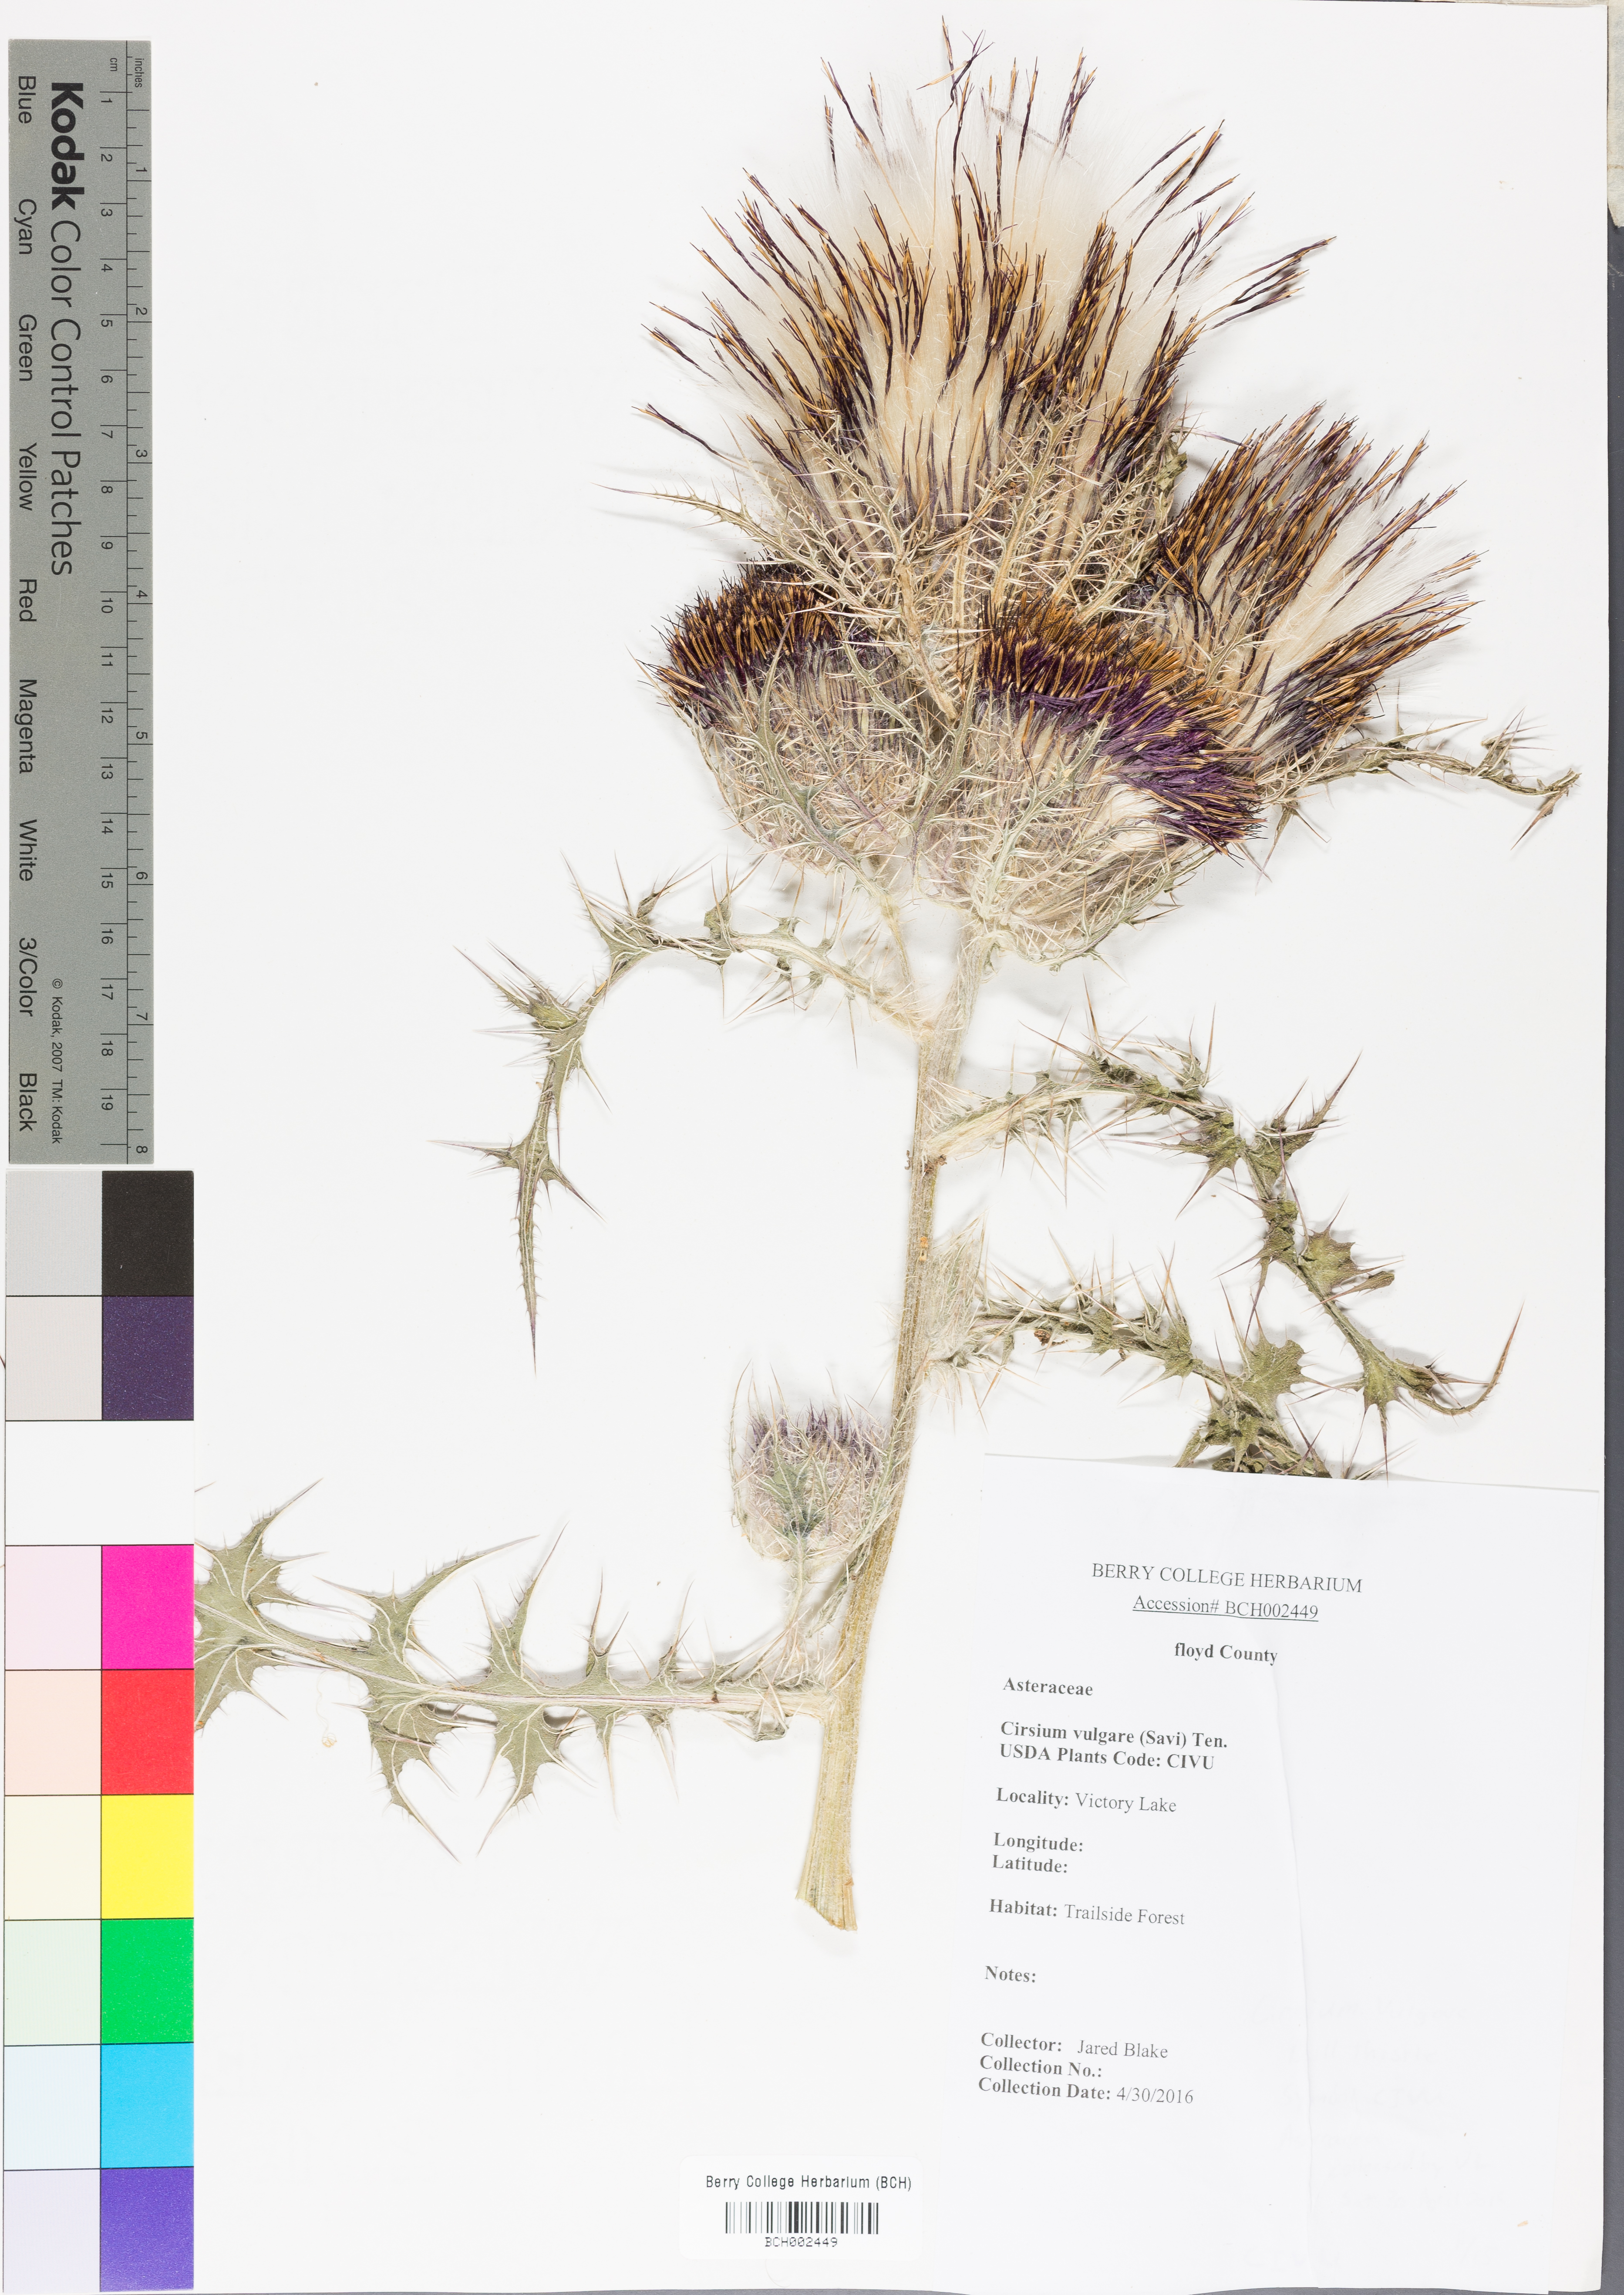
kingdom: Plantae
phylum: Tracheophyta
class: Magnoliopsida
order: Asterales
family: Asteraceae
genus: Cirsium
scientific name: Cirsium vulgare
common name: Bull thistle
